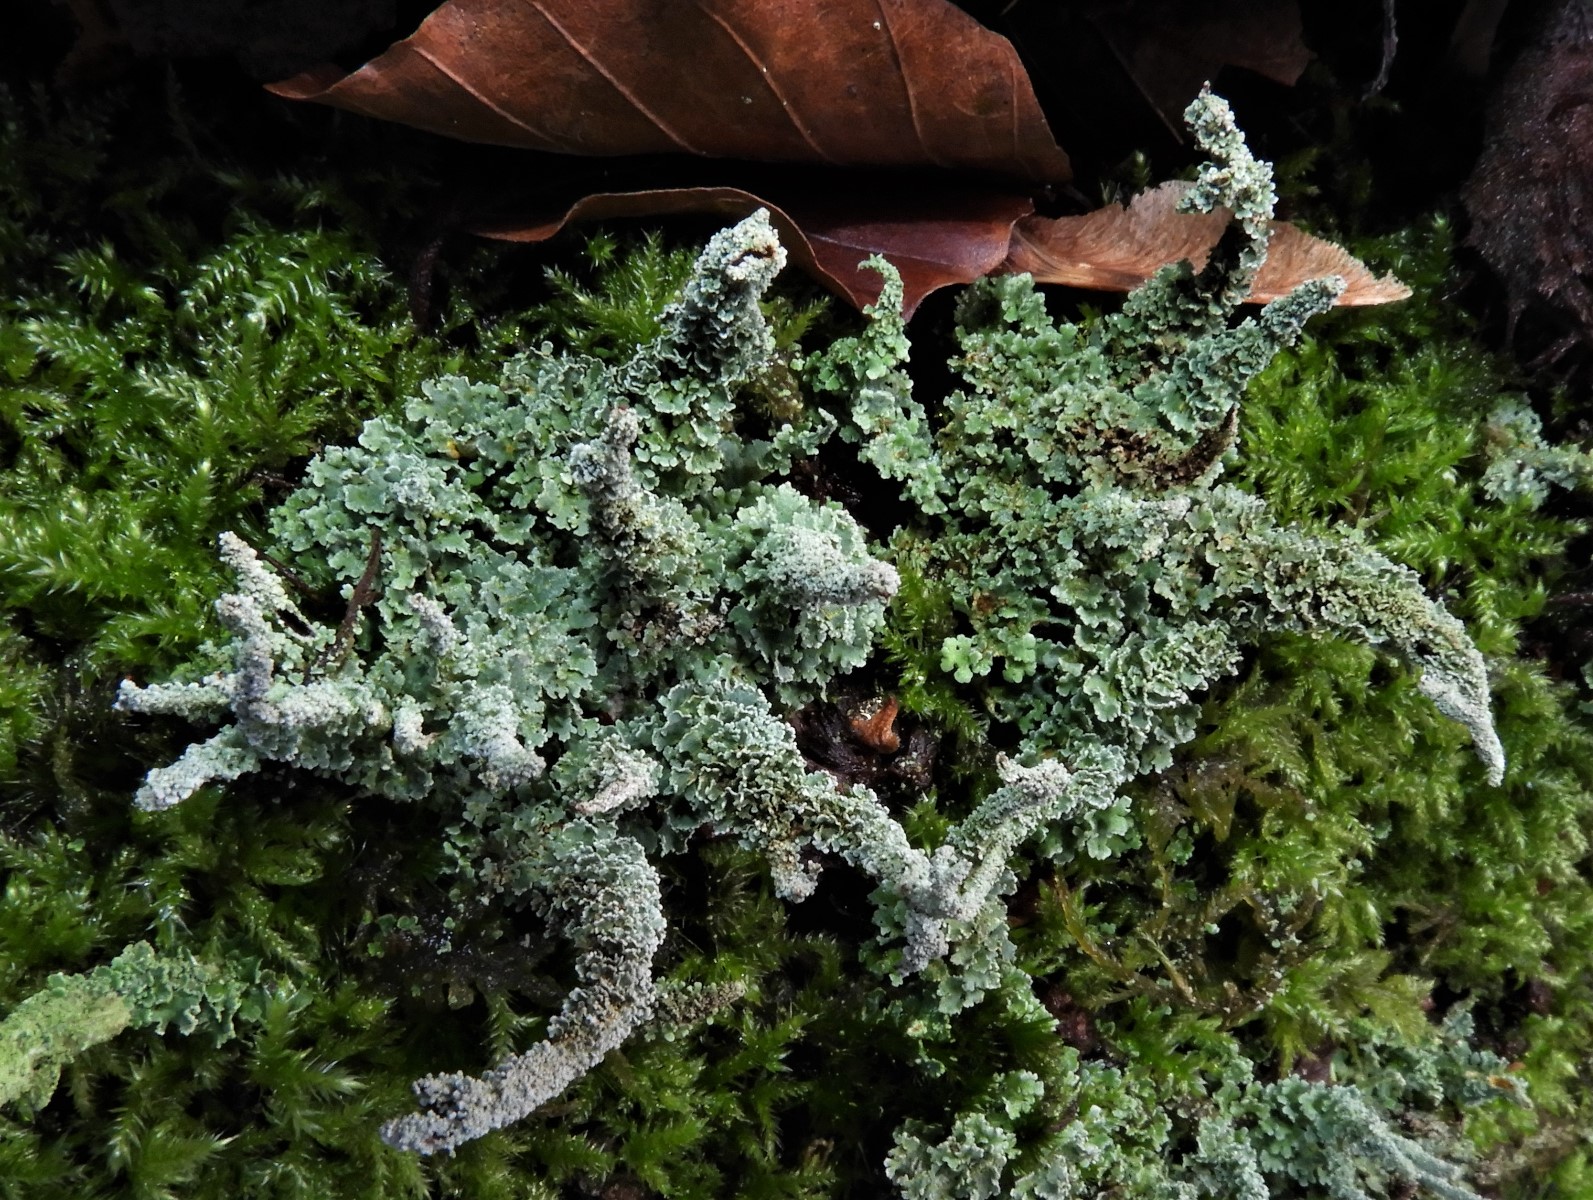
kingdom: Fungi
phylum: Ascomycota
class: Lecanoromycetes
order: Lecanorales
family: Cladoniaceae
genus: Cladonia
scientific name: Cladonia polydactyla
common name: vifte-bægerlav
